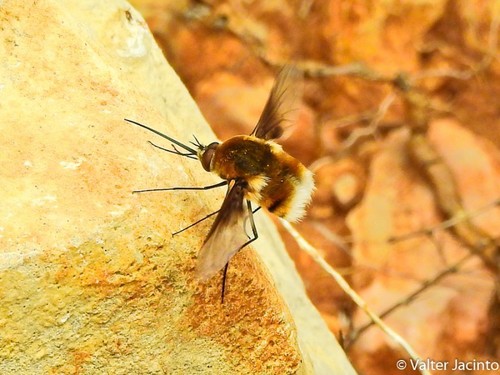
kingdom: Animalia
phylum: Arthropoda
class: Insecta
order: Diptera
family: Bombyliidae
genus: Bombylius
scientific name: Bombylius cruciatus
